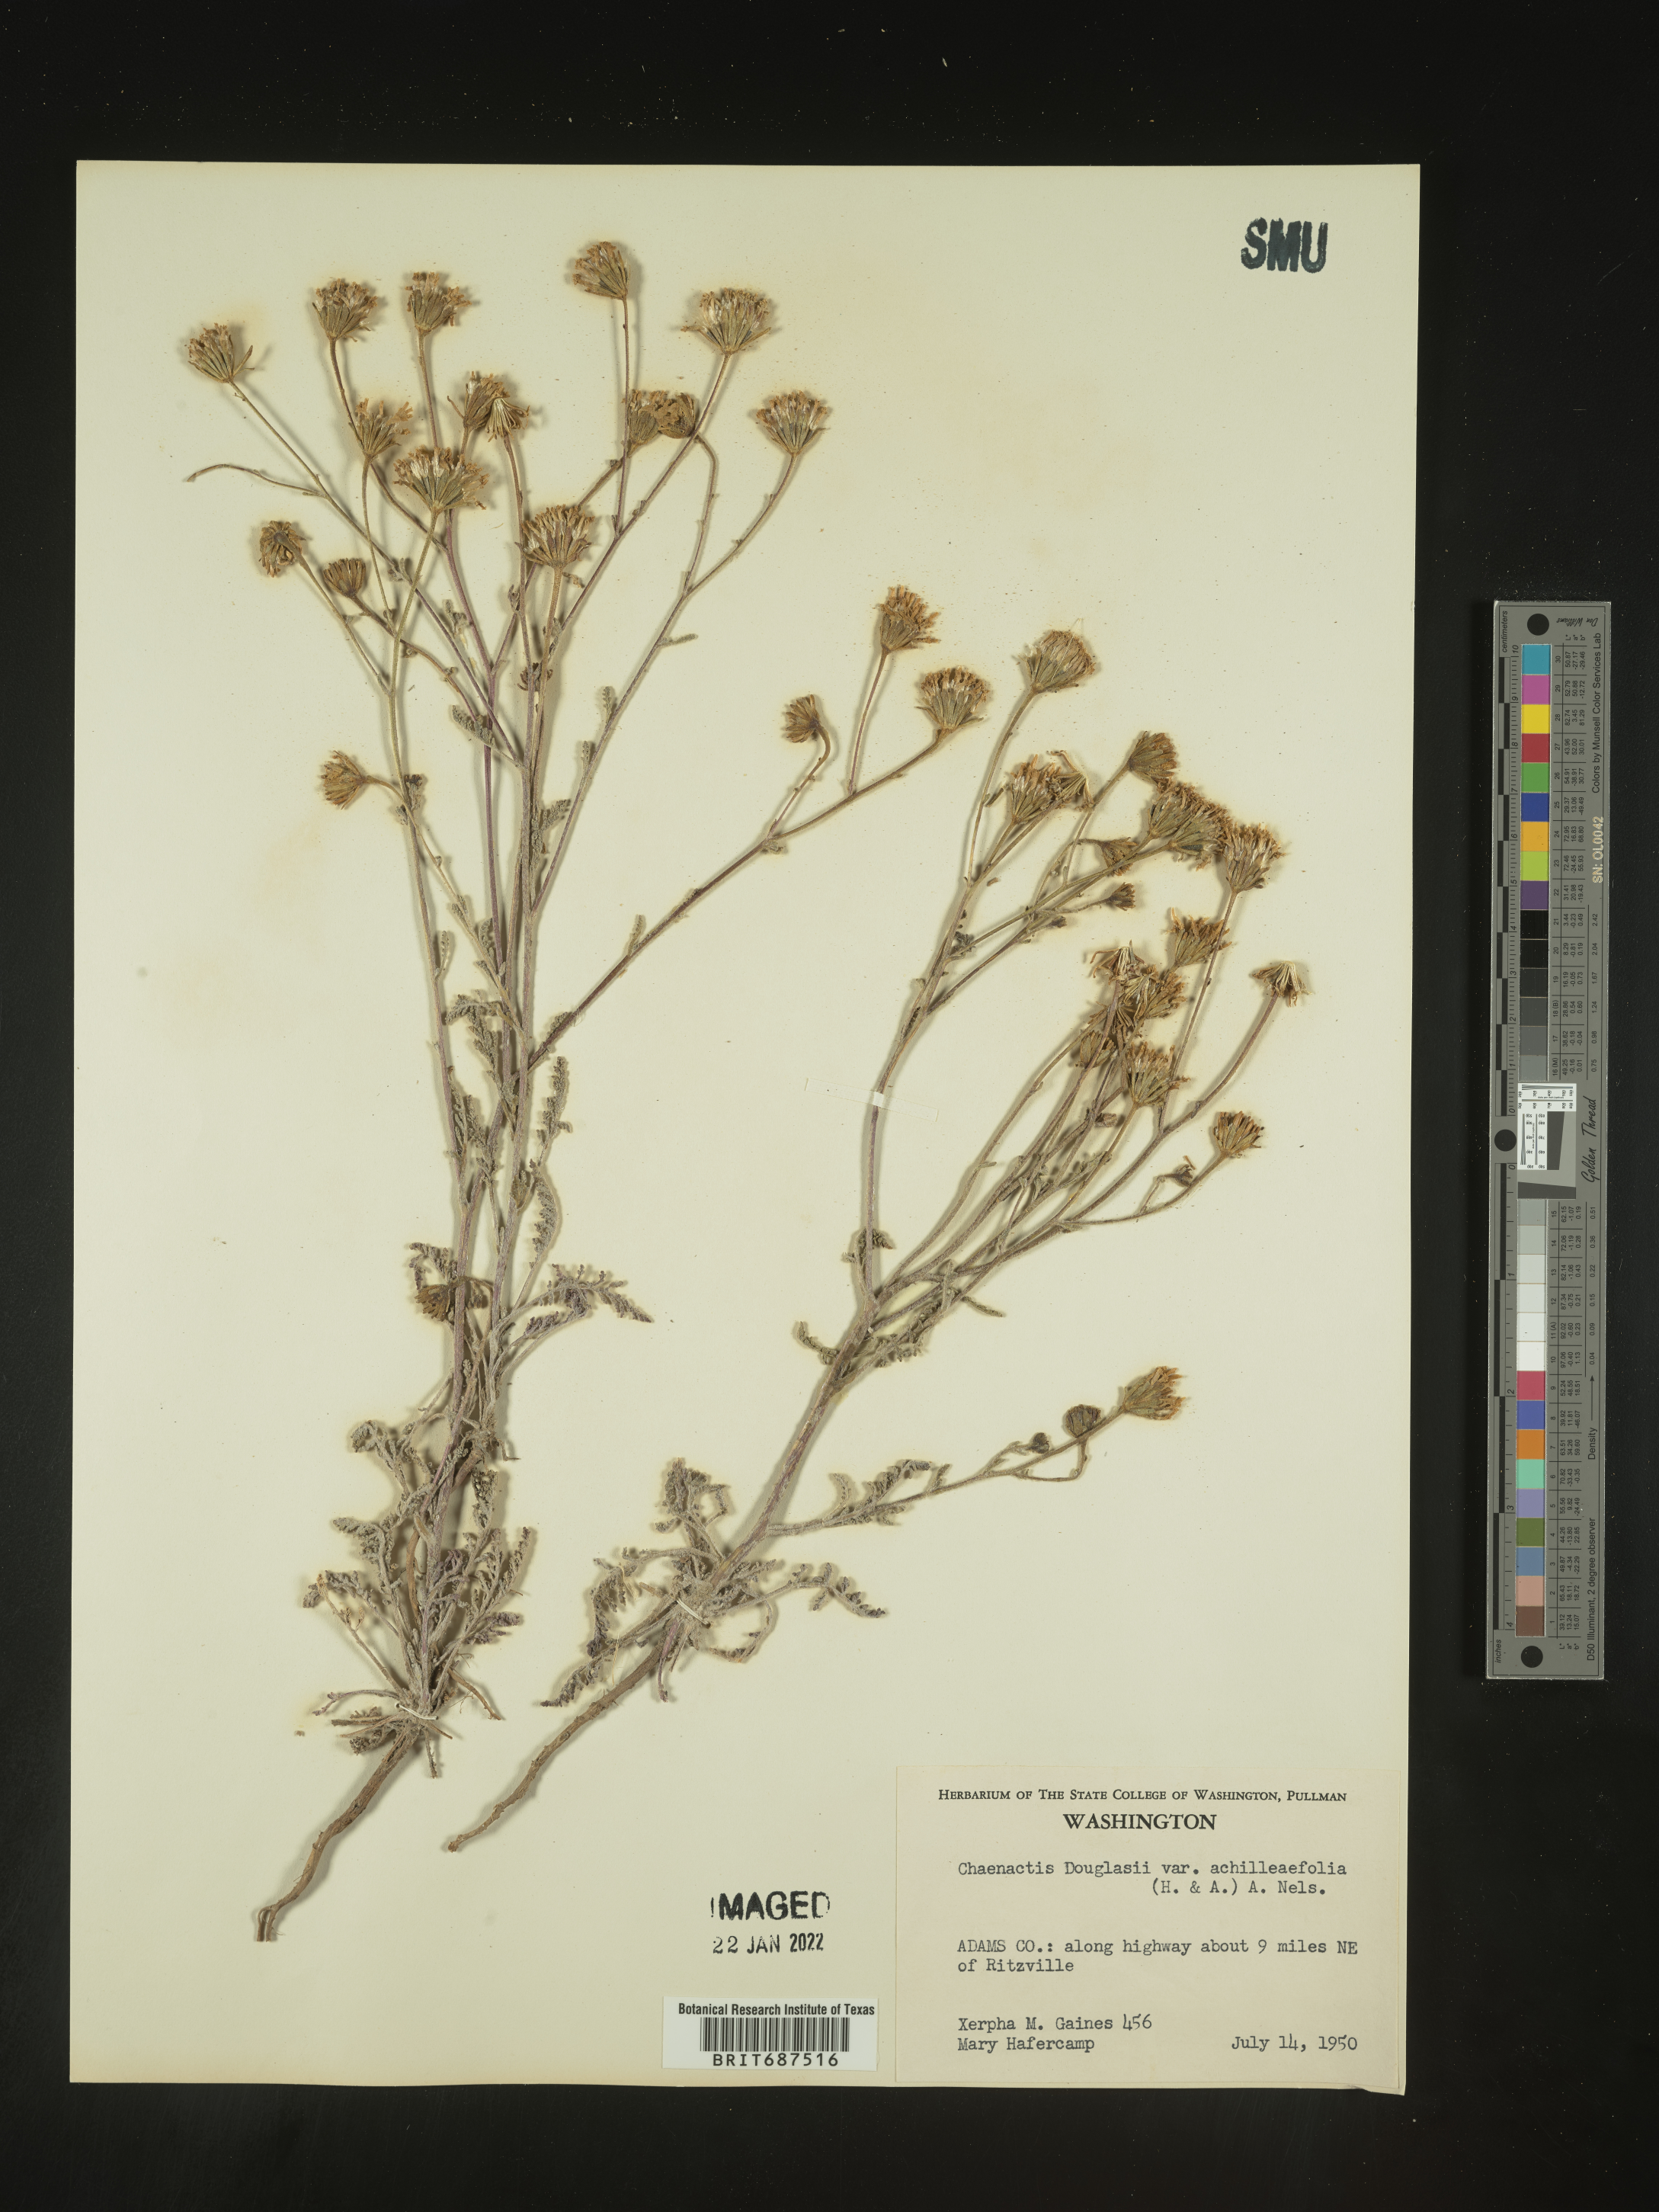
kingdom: Plantae
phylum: Tracheophyta
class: Magnoliopsida
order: Asterales
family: Asteraceae
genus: Chaenactis
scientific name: Chaenactis douglasii
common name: Hoary pincushion
